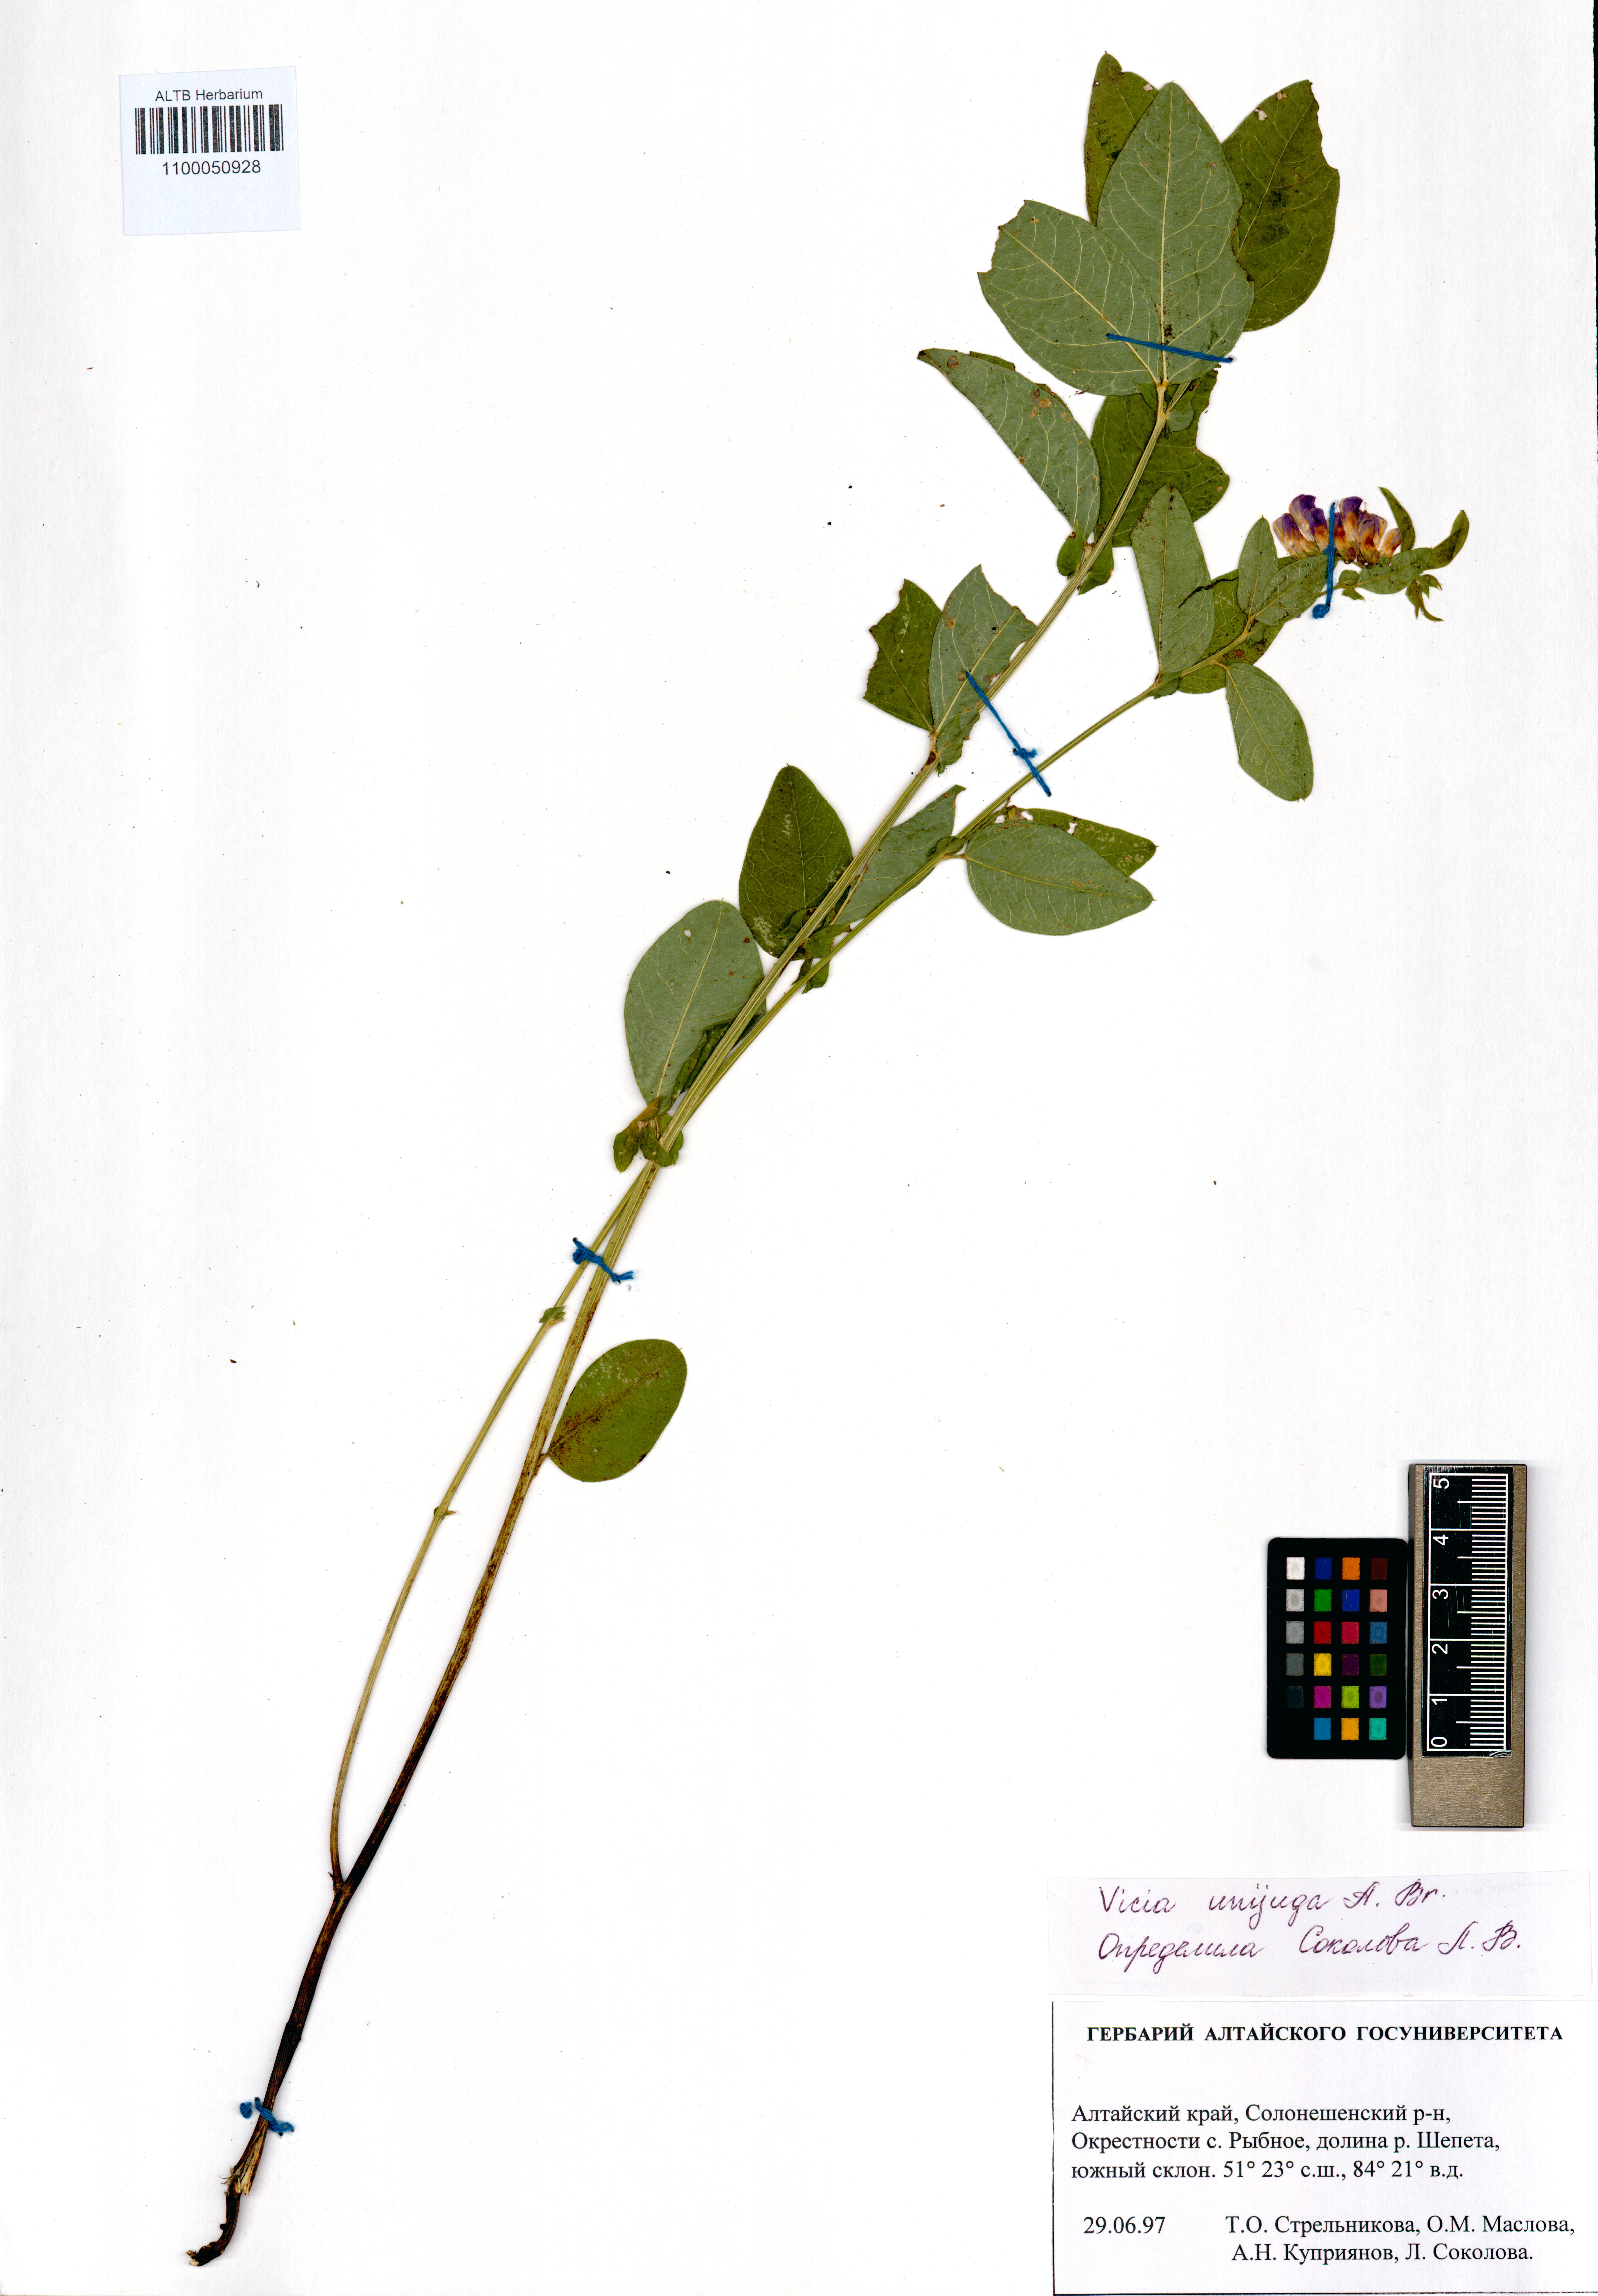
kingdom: Plantae
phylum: Tracheophyta
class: Magnoliopsida
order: Fabales
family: Fabaceae
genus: Vicia
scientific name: Vicia unijuga
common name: Two-leaf vetch
